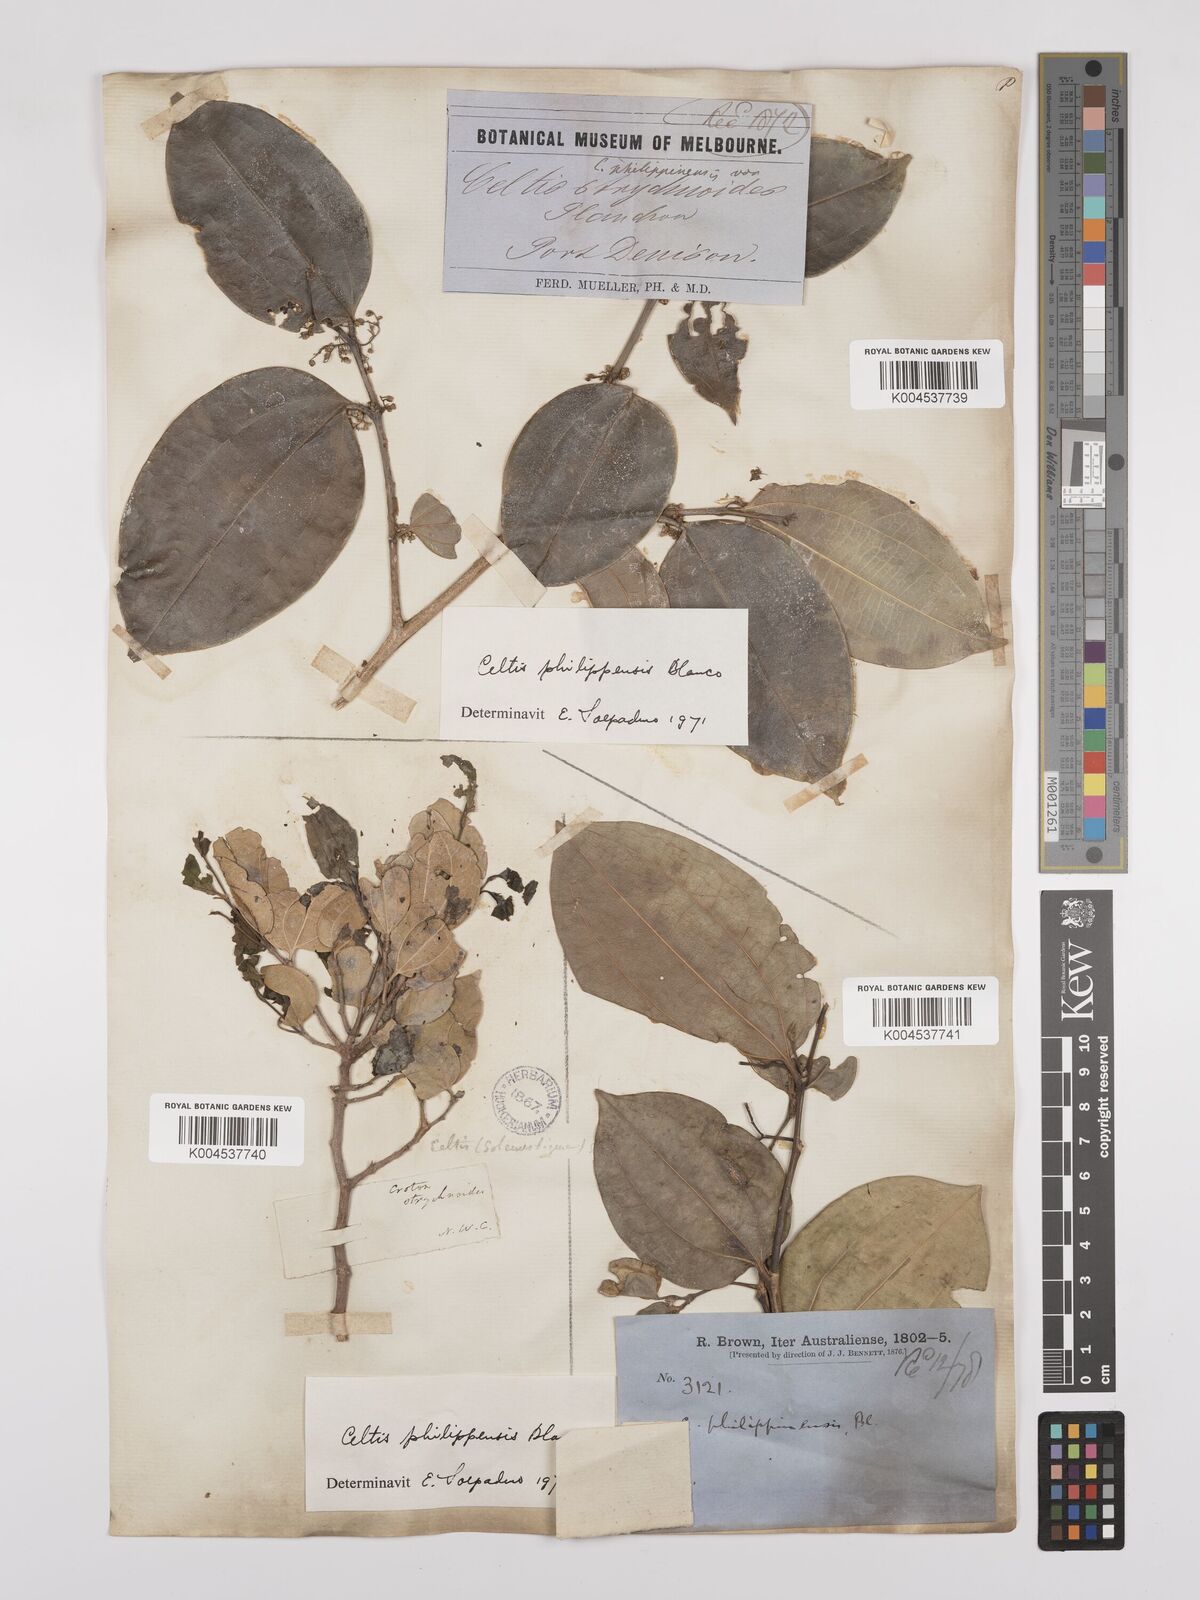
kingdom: Plantae
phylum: Tracheophyta
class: Magnoliopsida
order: Rosales
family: Cannabaceae
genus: Celtis
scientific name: Celtis philippensis
